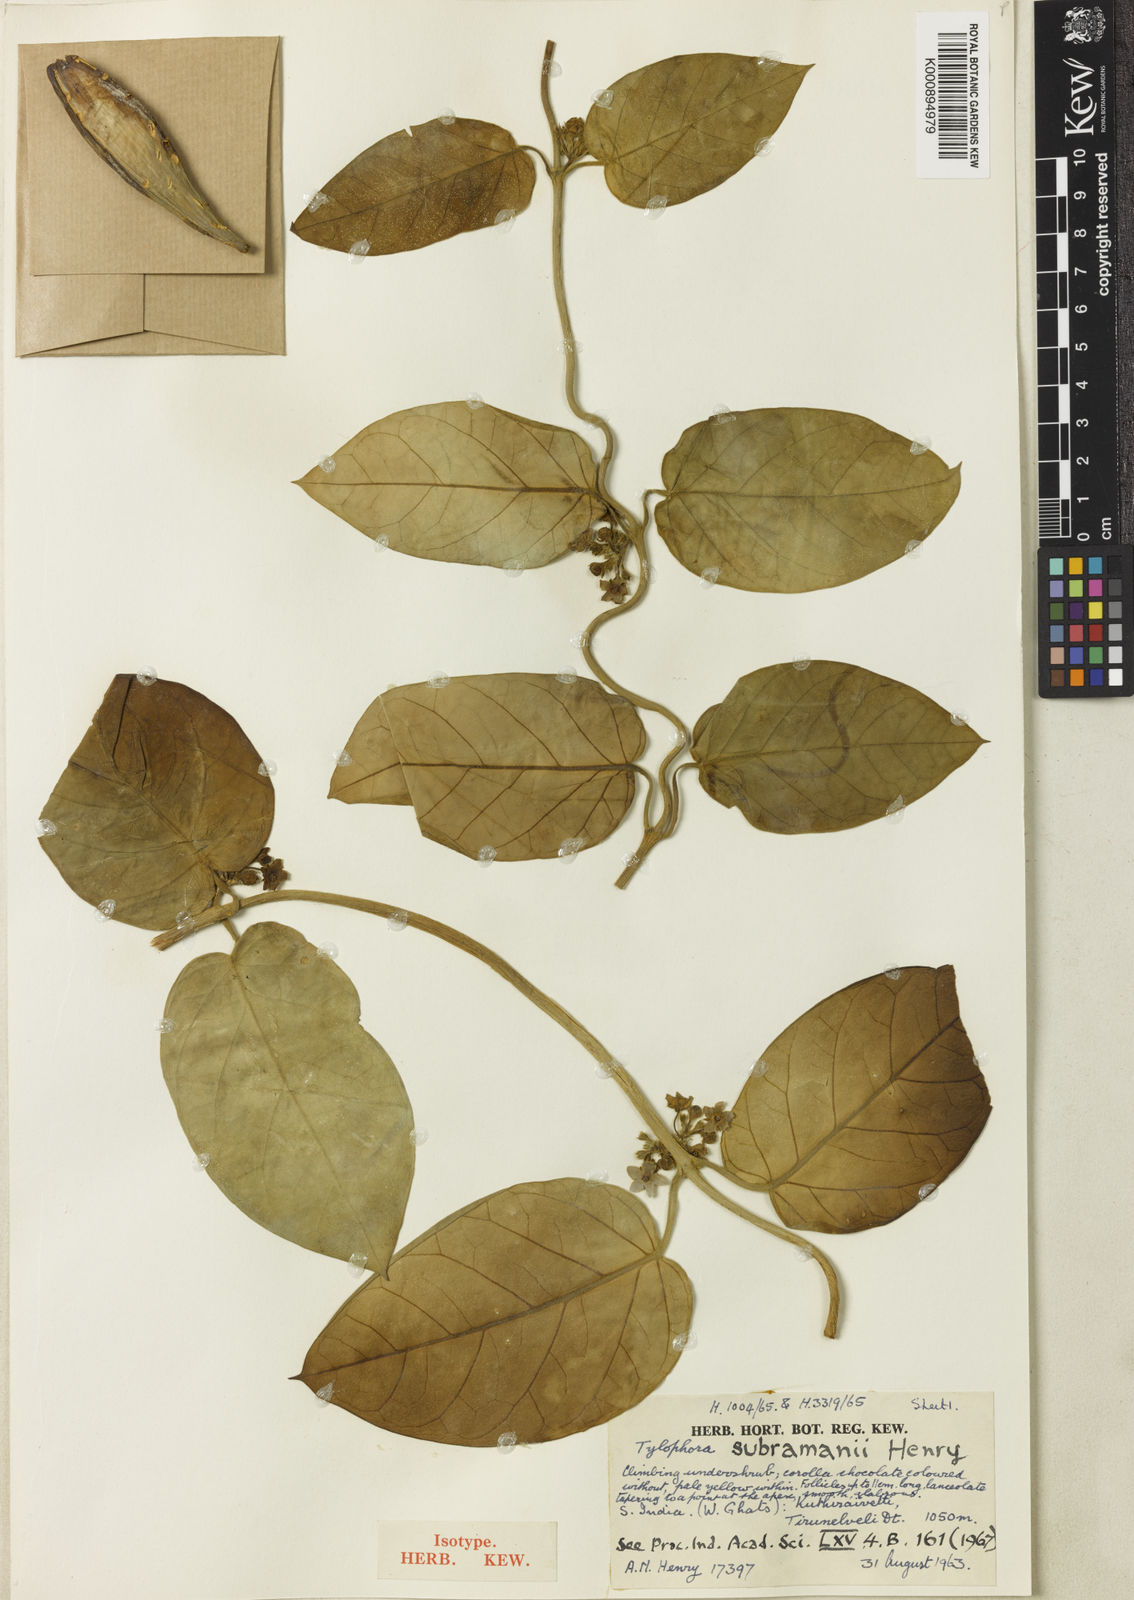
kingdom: Plantae
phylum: Tracheophyta
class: Magnoliopsida
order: Gentianales
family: Apocynaceae
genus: Vincetoxicum
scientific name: Vincetoxicum subramanii
